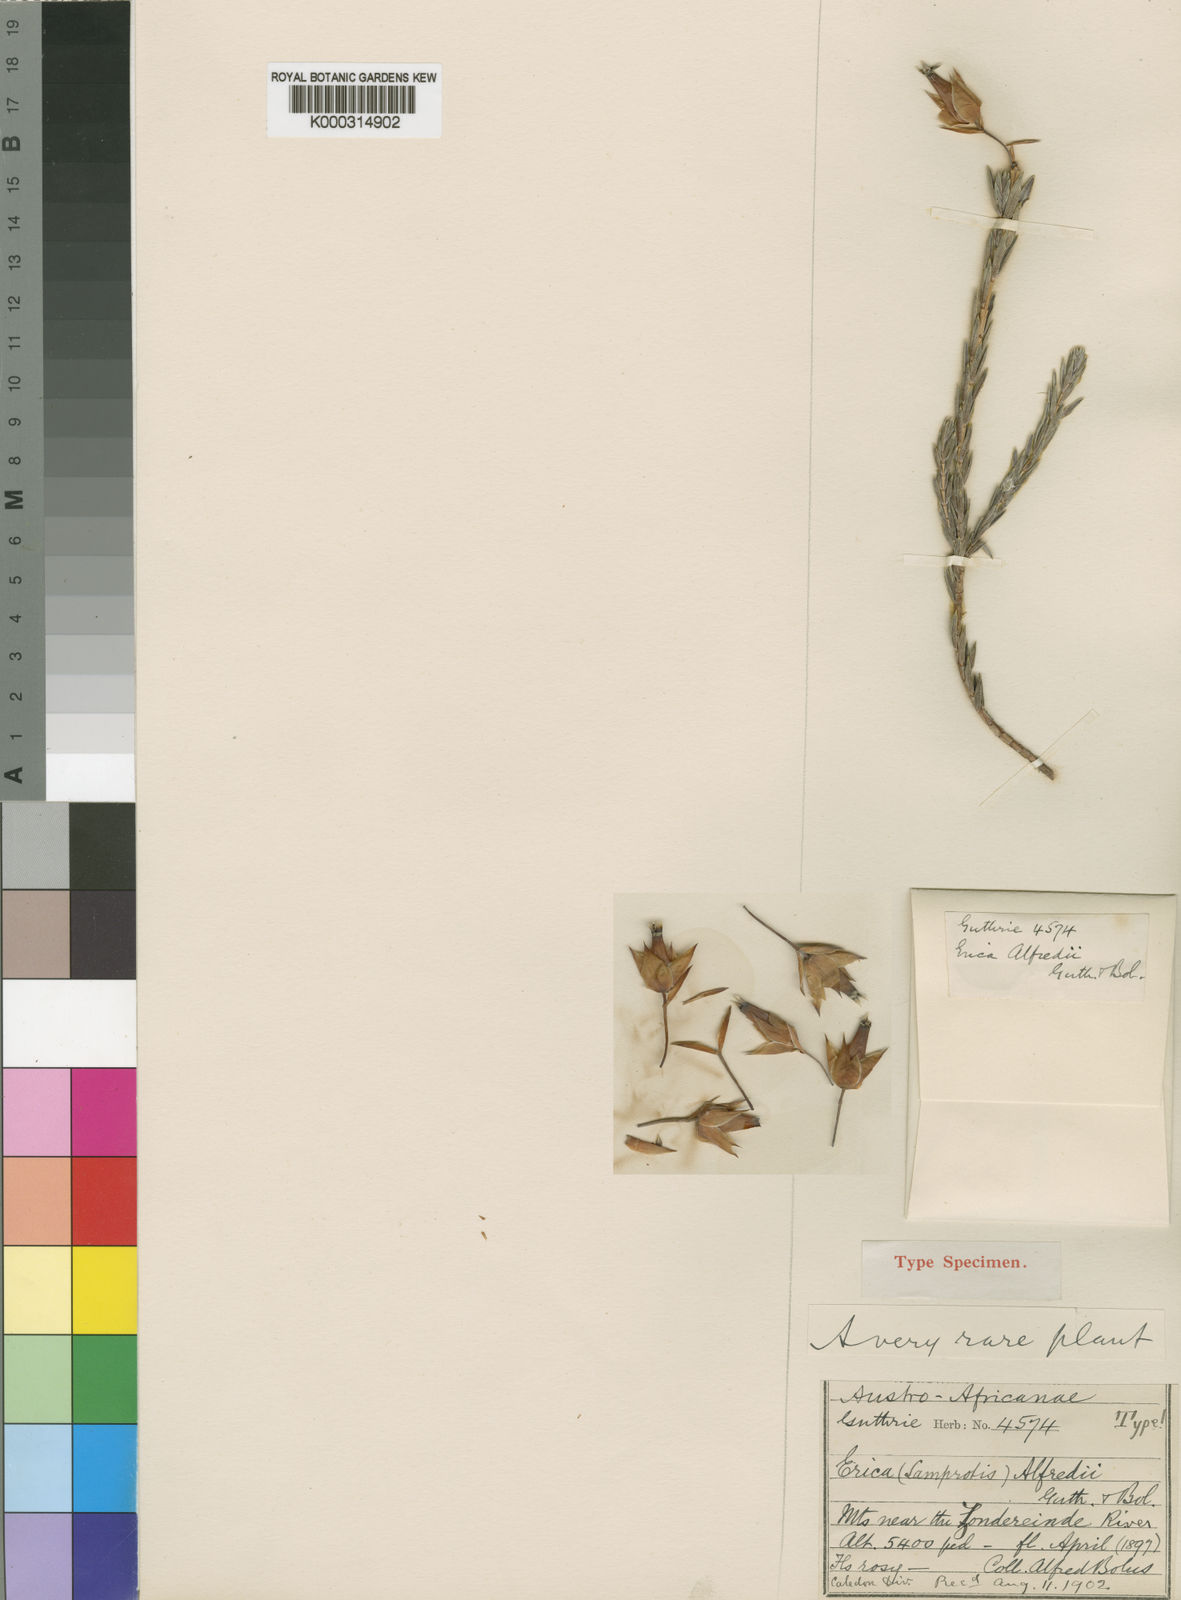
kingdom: Plantae
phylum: Tracheophyta
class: Magnoliopsida
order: Ericales
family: Ericaceae
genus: Erica
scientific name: Erica alfredii
